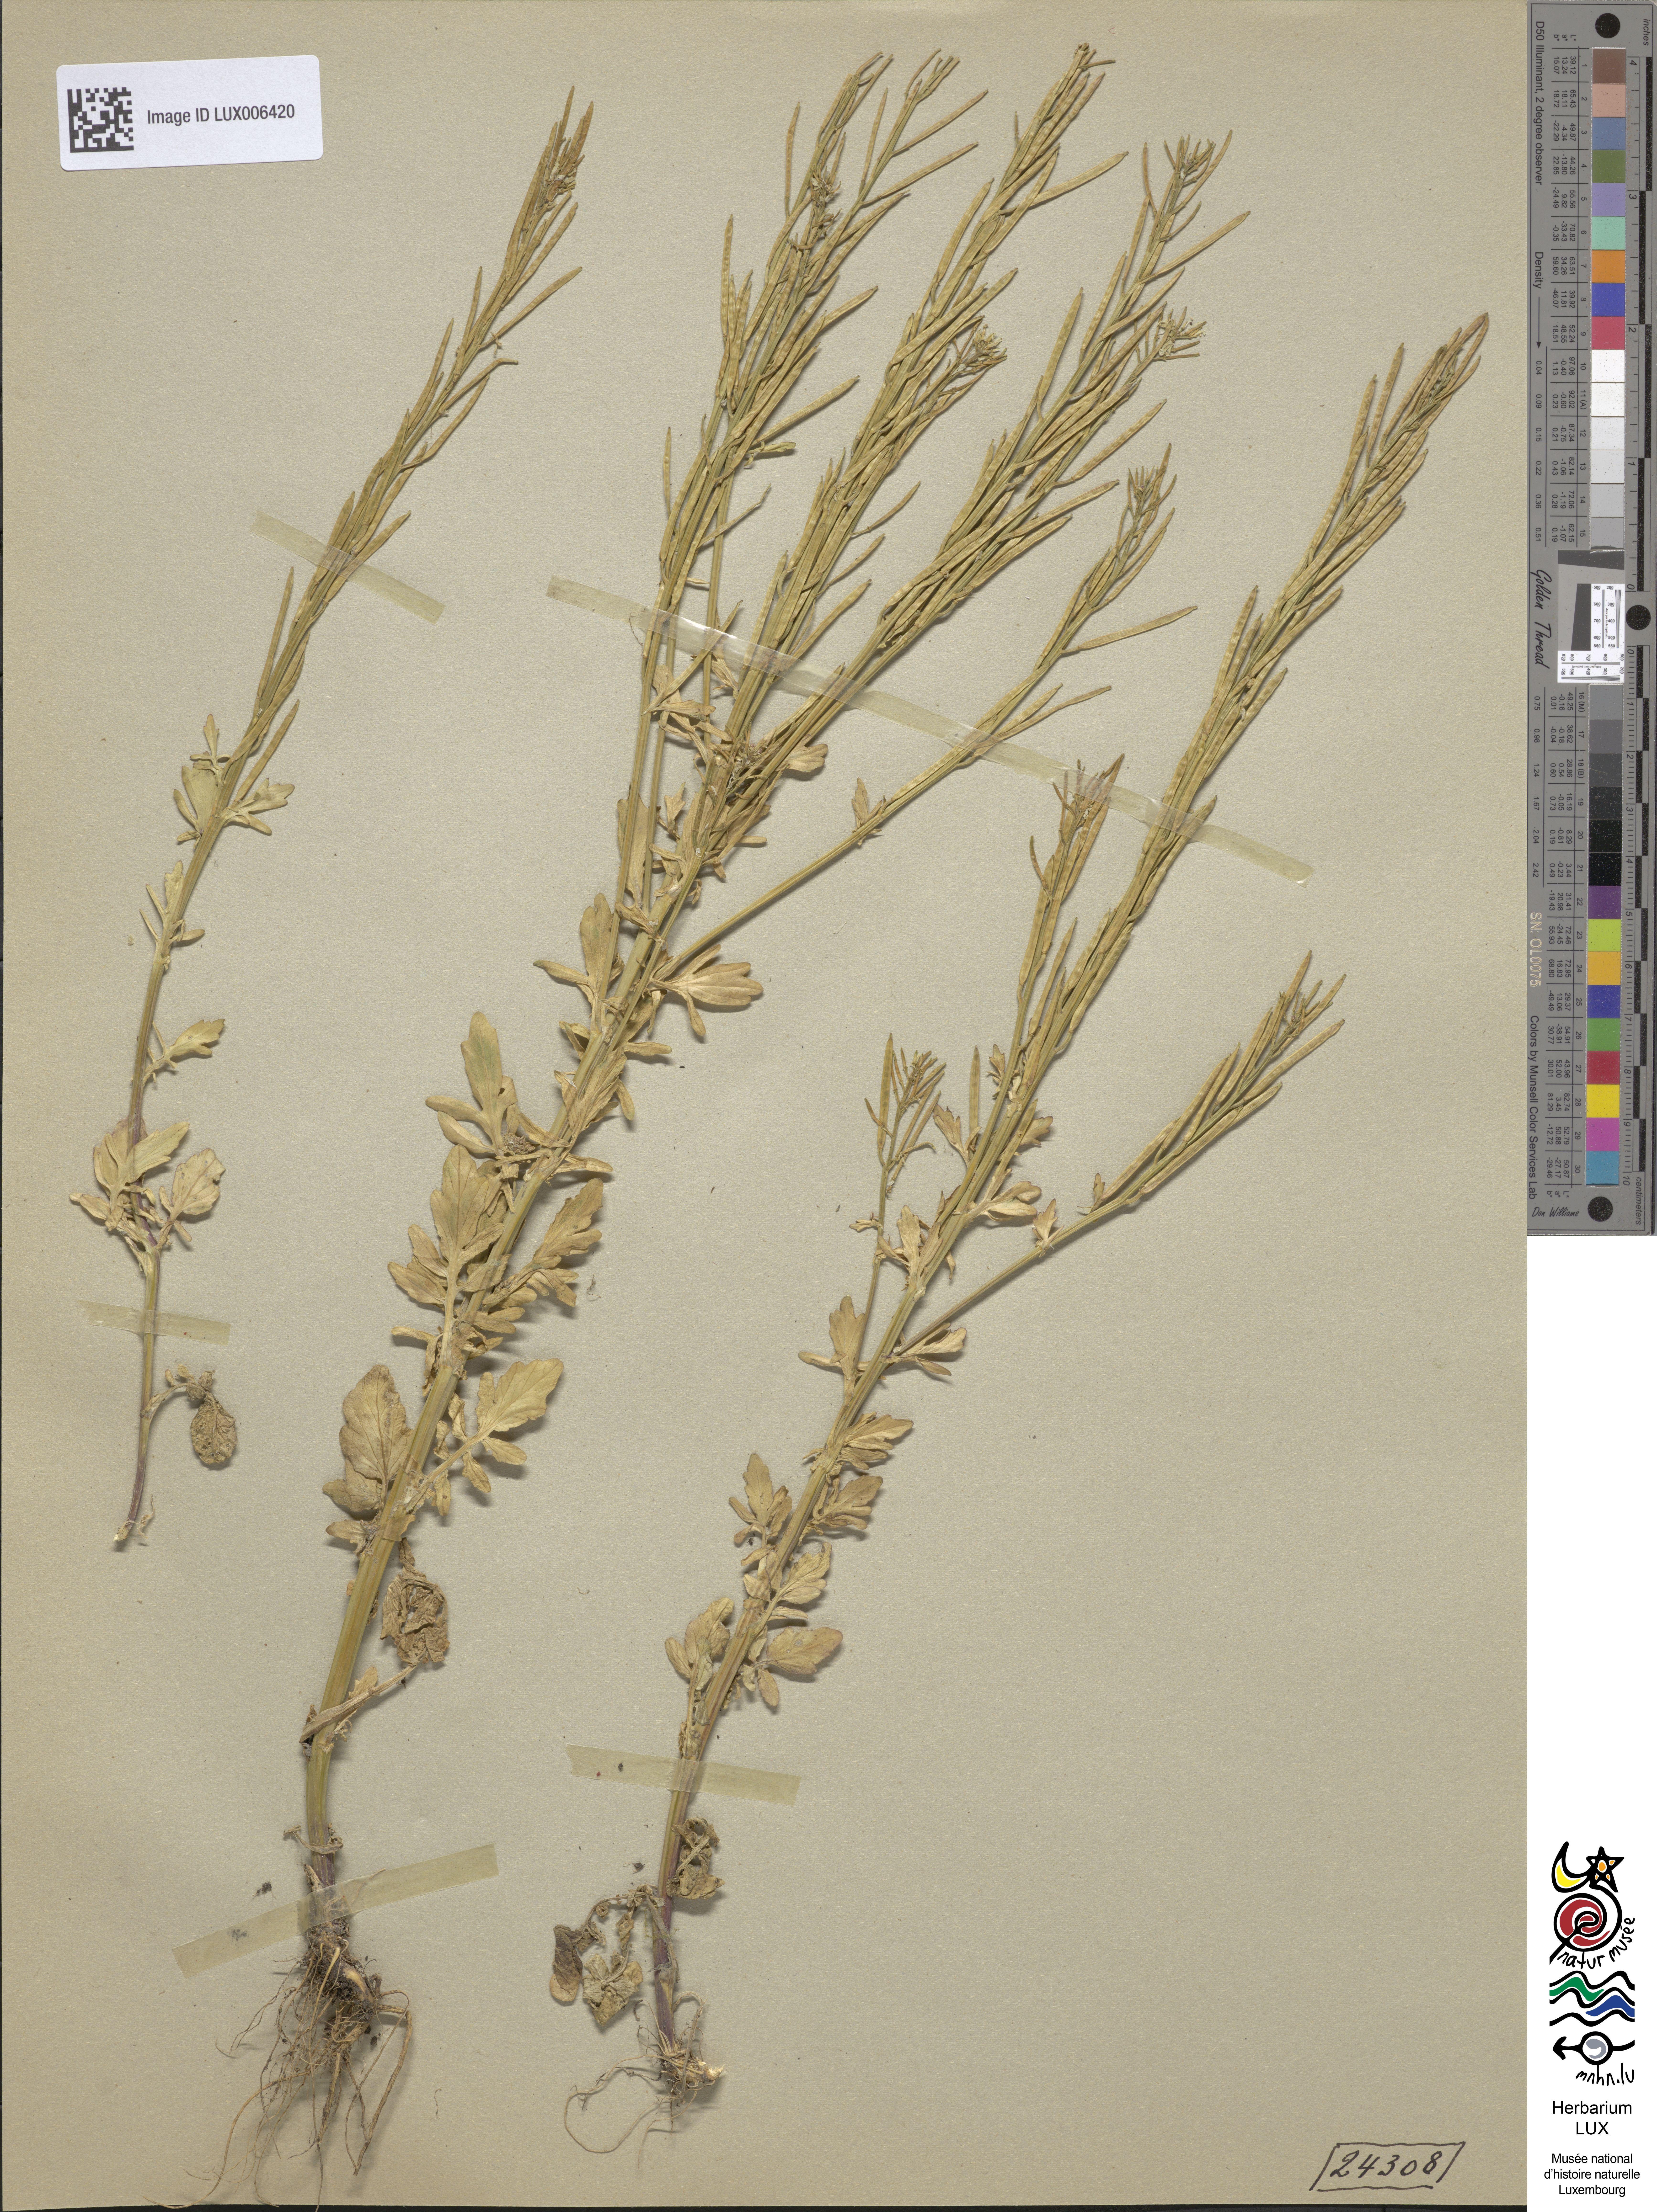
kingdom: Plantae
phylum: Tracheophyta
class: Magnoliopsida
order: Brassicales
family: Brassicaceae
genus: Barbarea
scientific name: Barbarea intermedia
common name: Medium-flowered winter-cress
